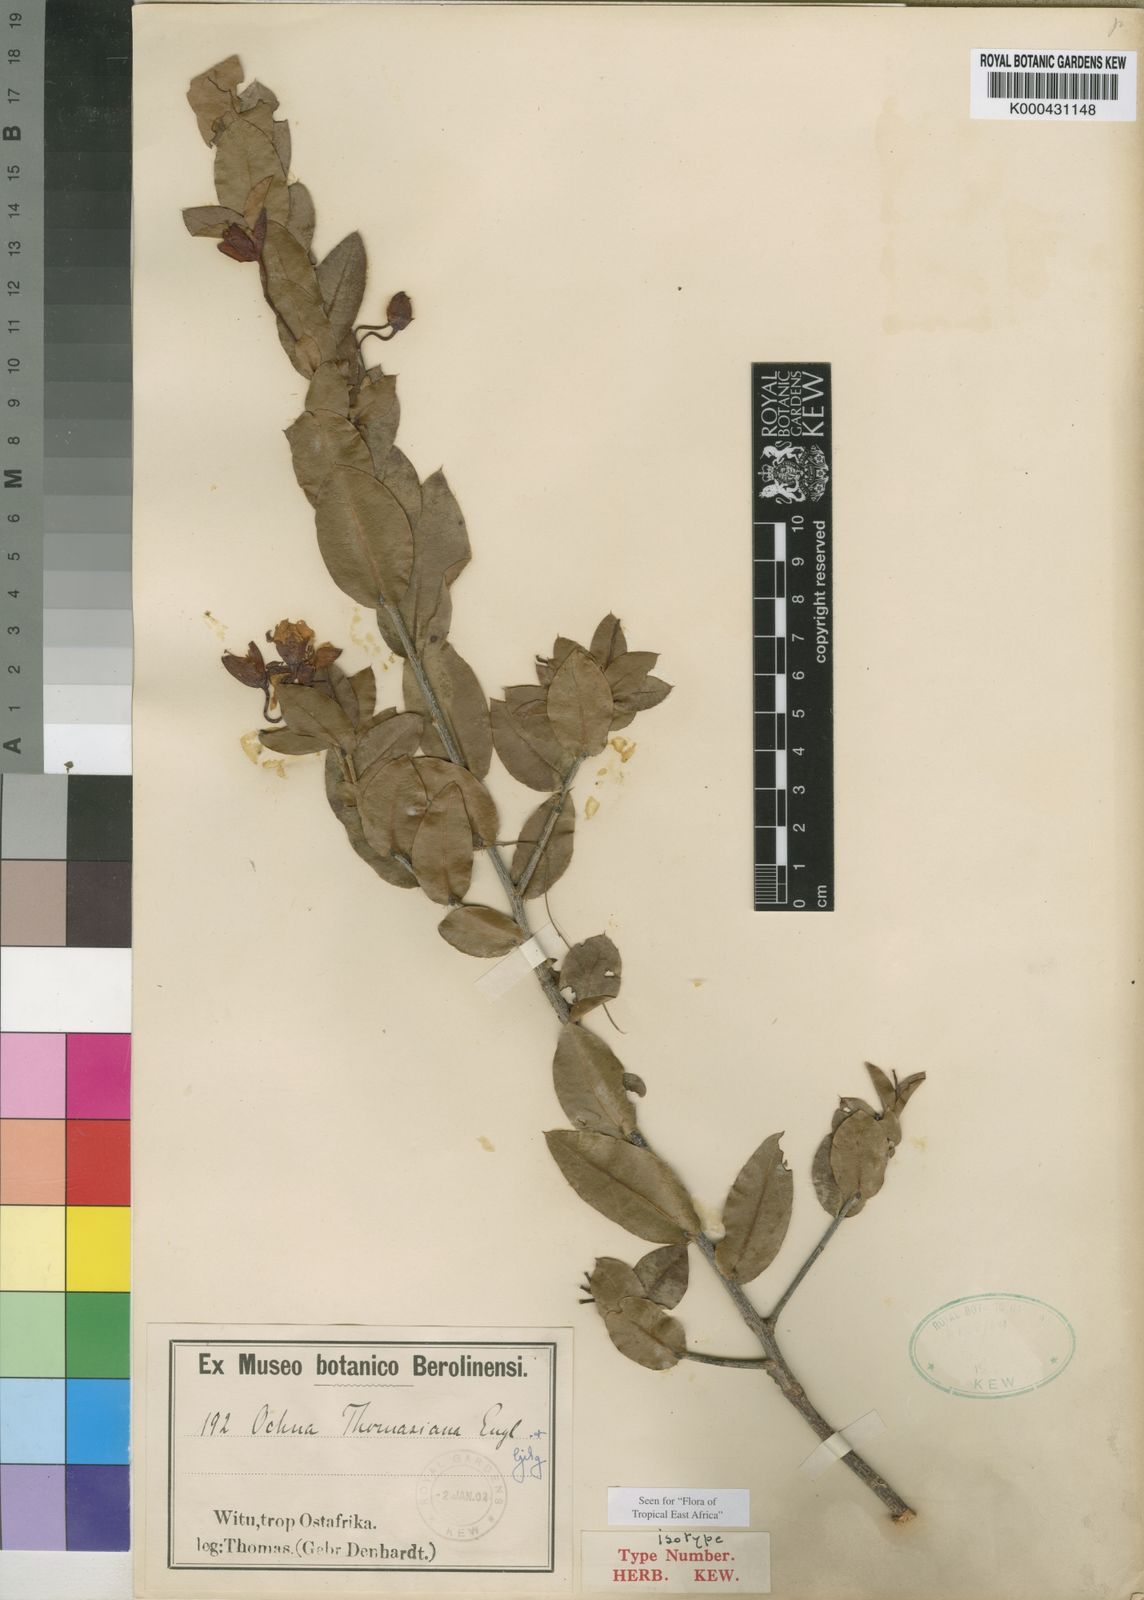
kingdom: Plantae
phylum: Tracheophyta
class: Magnoliopsida
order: Malpighiales
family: Ochnaceae
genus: Ochna
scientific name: Ochna thomasiana
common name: Thomas' bird's-eye bush
